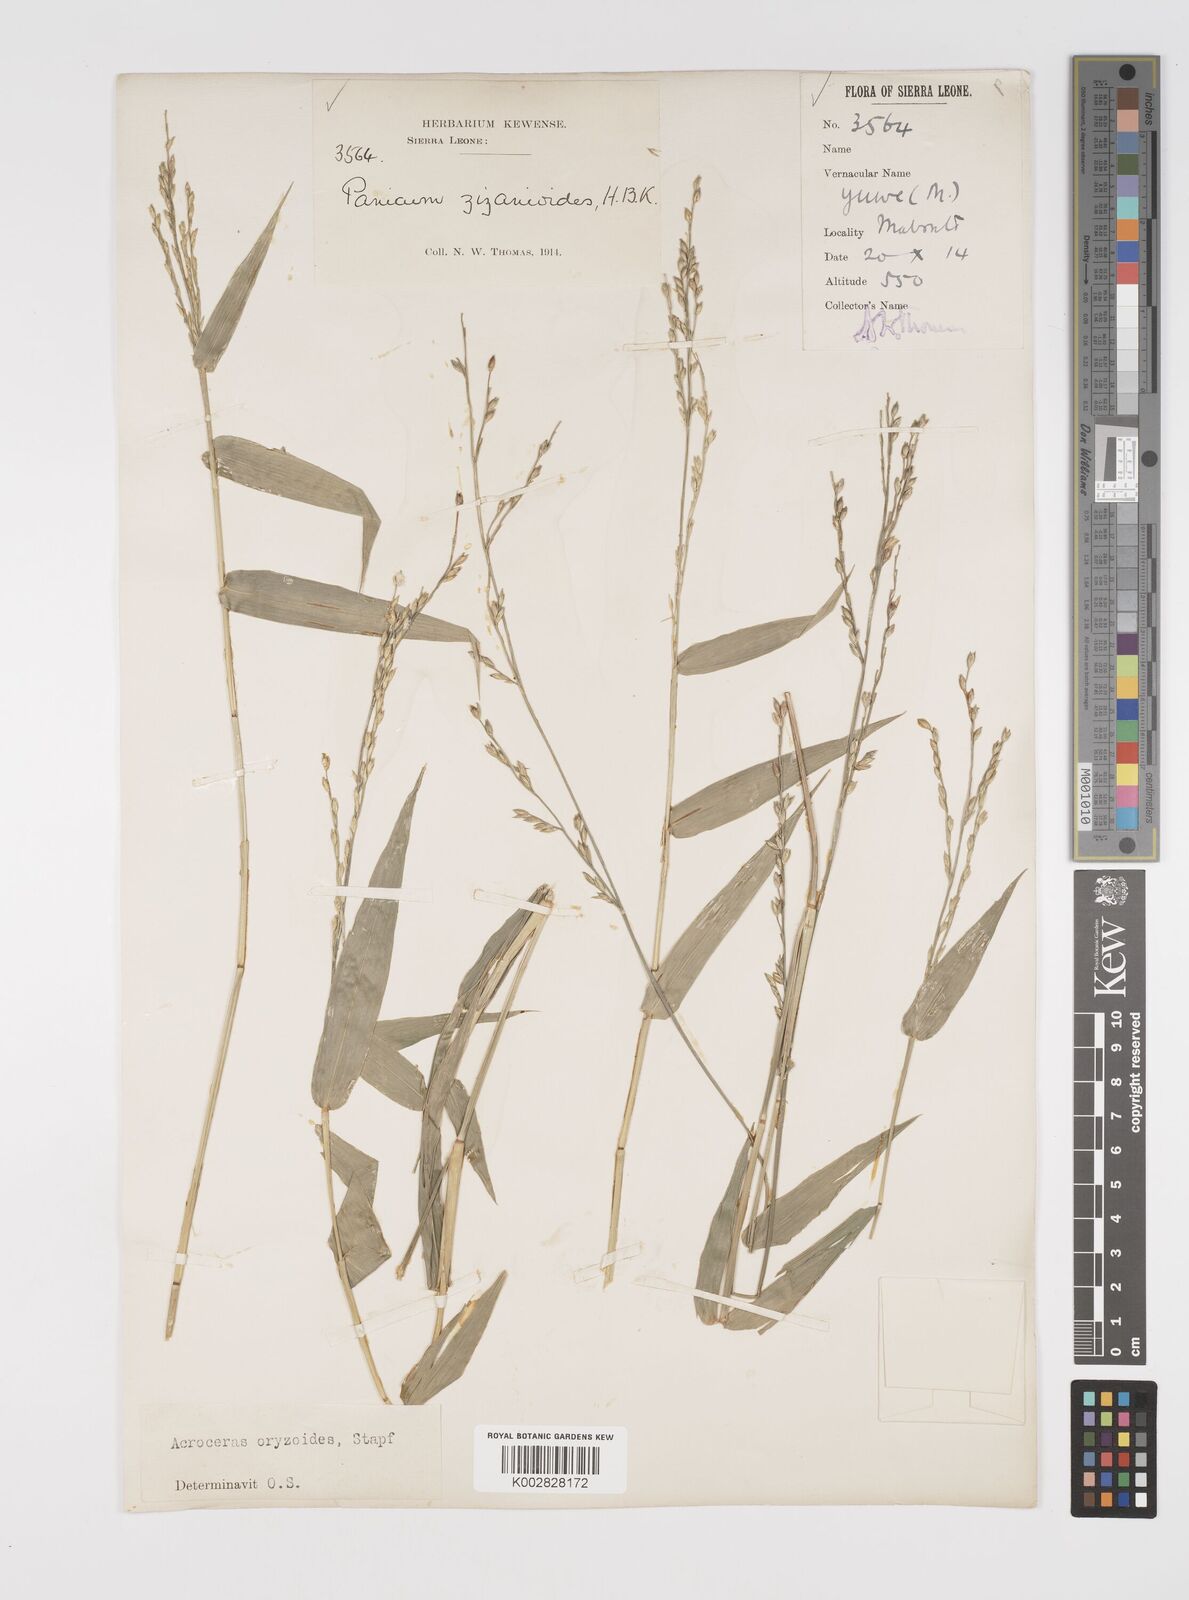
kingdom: Plantae
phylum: Tracheophyta
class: Liliopsida
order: Poales
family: Poaceae
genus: Acroceras
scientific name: Acroceras zizanioides
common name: Oat grass
